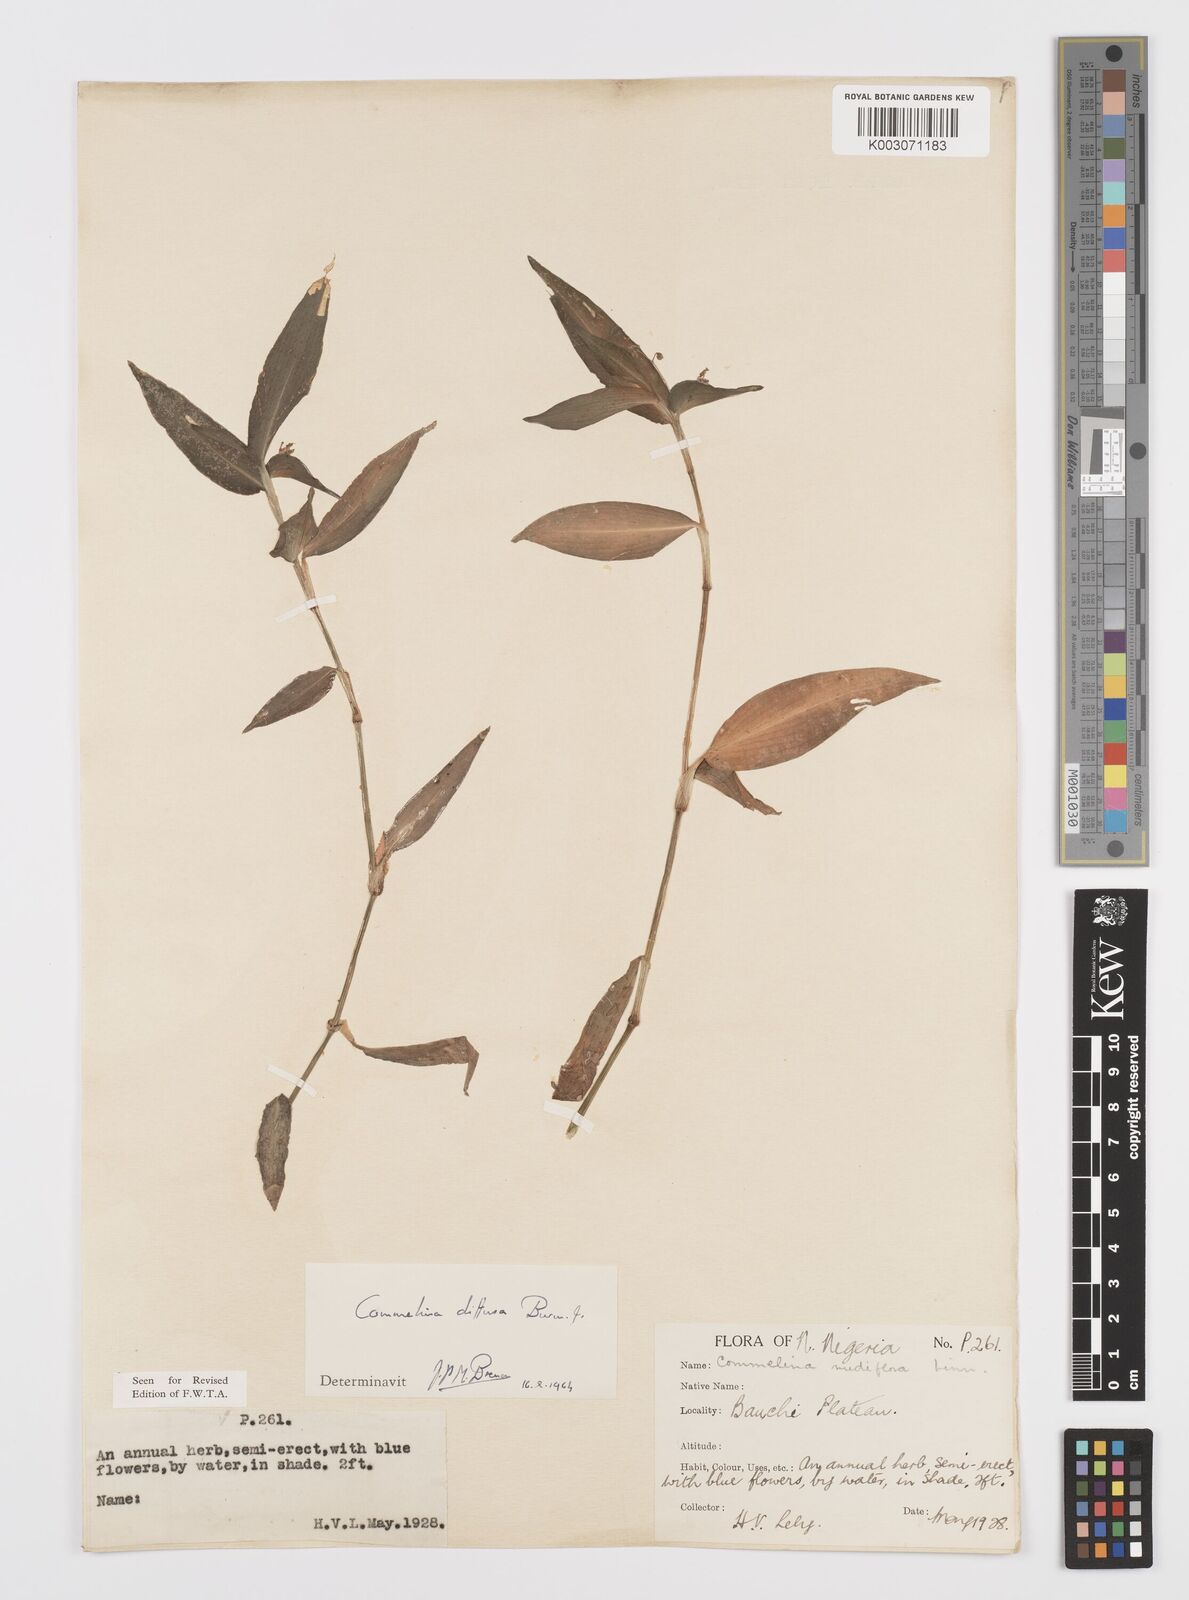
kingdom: Plantae
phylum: Tracheophyta
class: Liliopsida
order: Commelinales
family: Commelinaceae
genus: Commelina
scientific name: Commelina diffusa
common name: Climbing dayflower
